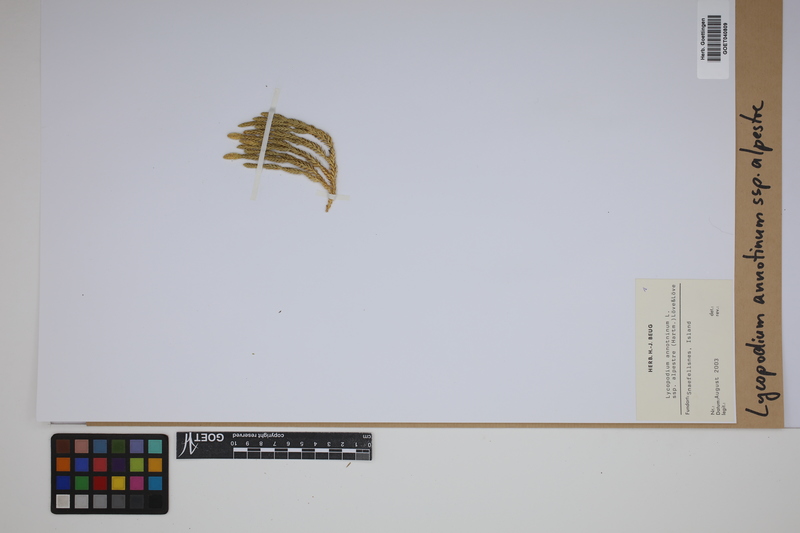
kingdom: Plantae
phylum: Tracheophyta
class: Lycopodiopsida
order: Lycopodiales
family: Lycopodiaceae
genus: Spinulum
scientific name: Spinulum annotinum
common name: Interrupted club-moss
